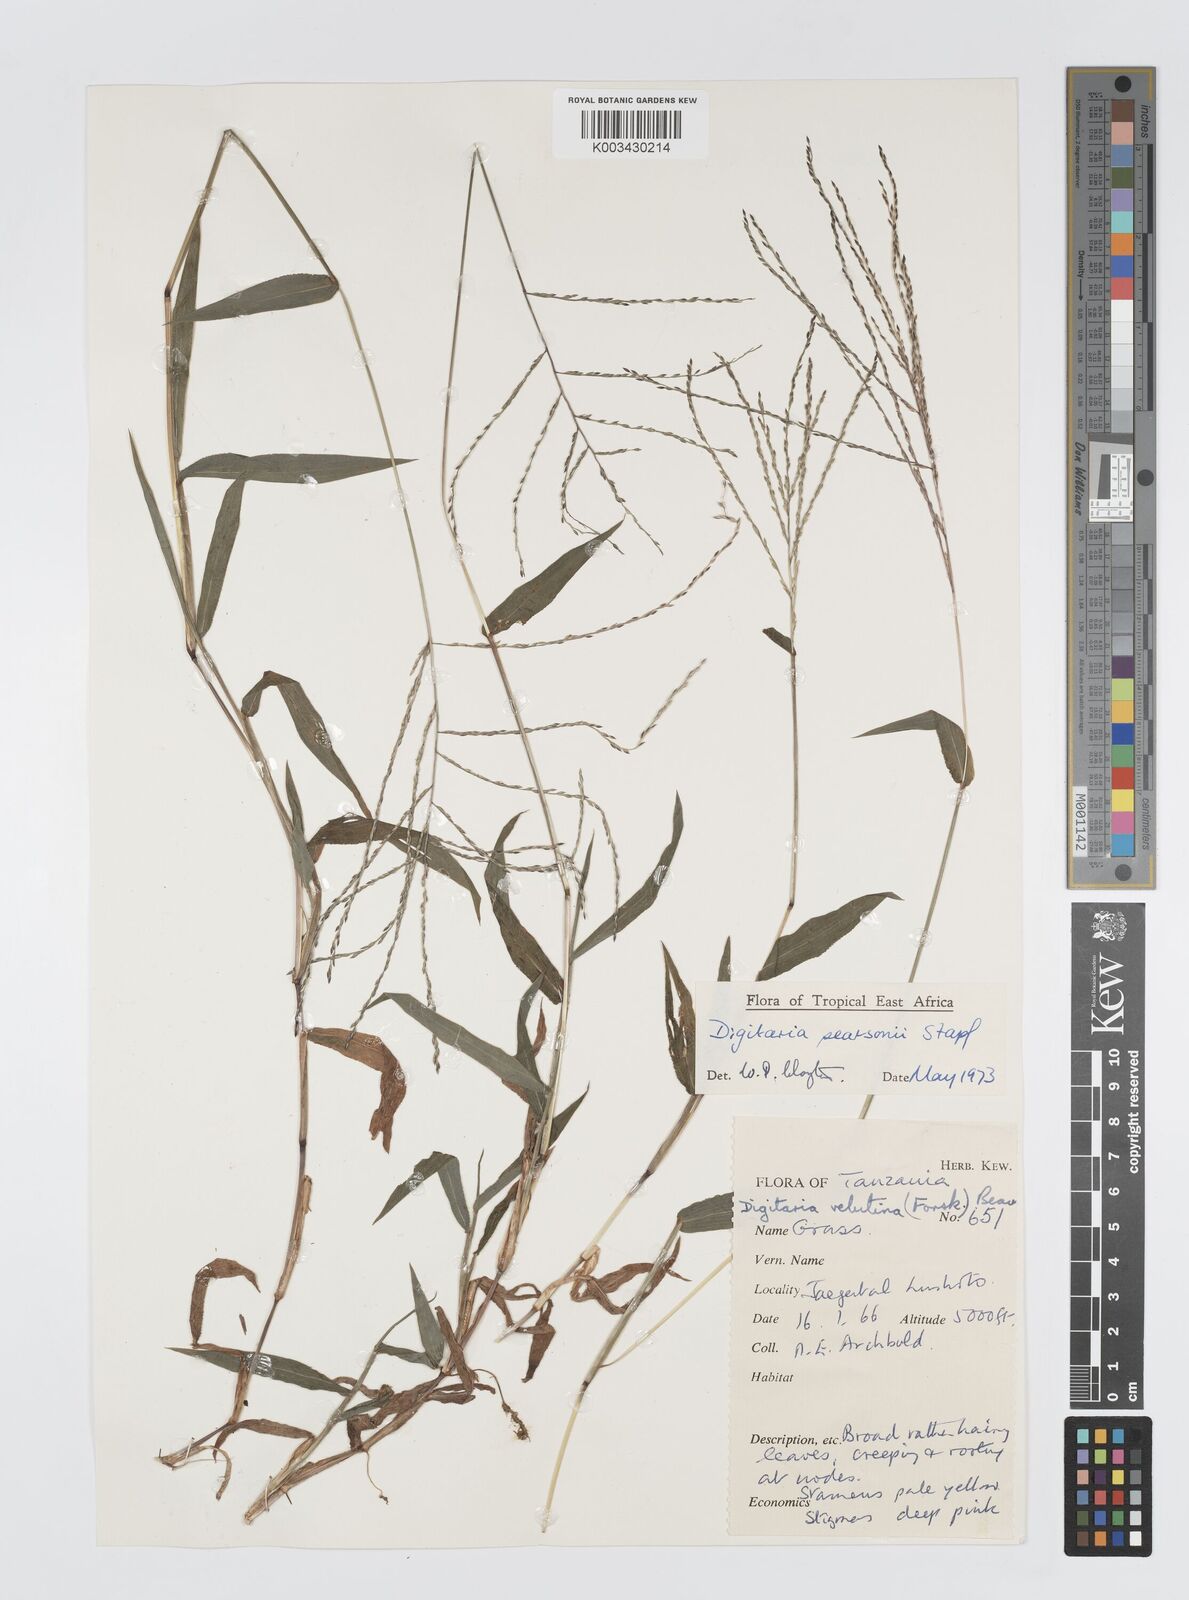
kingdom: Plantae
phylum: Tracheophyta
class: Liliopsida
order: Poales
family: Poaceae
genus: Digitaria
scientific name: Digitaria pearsonii
